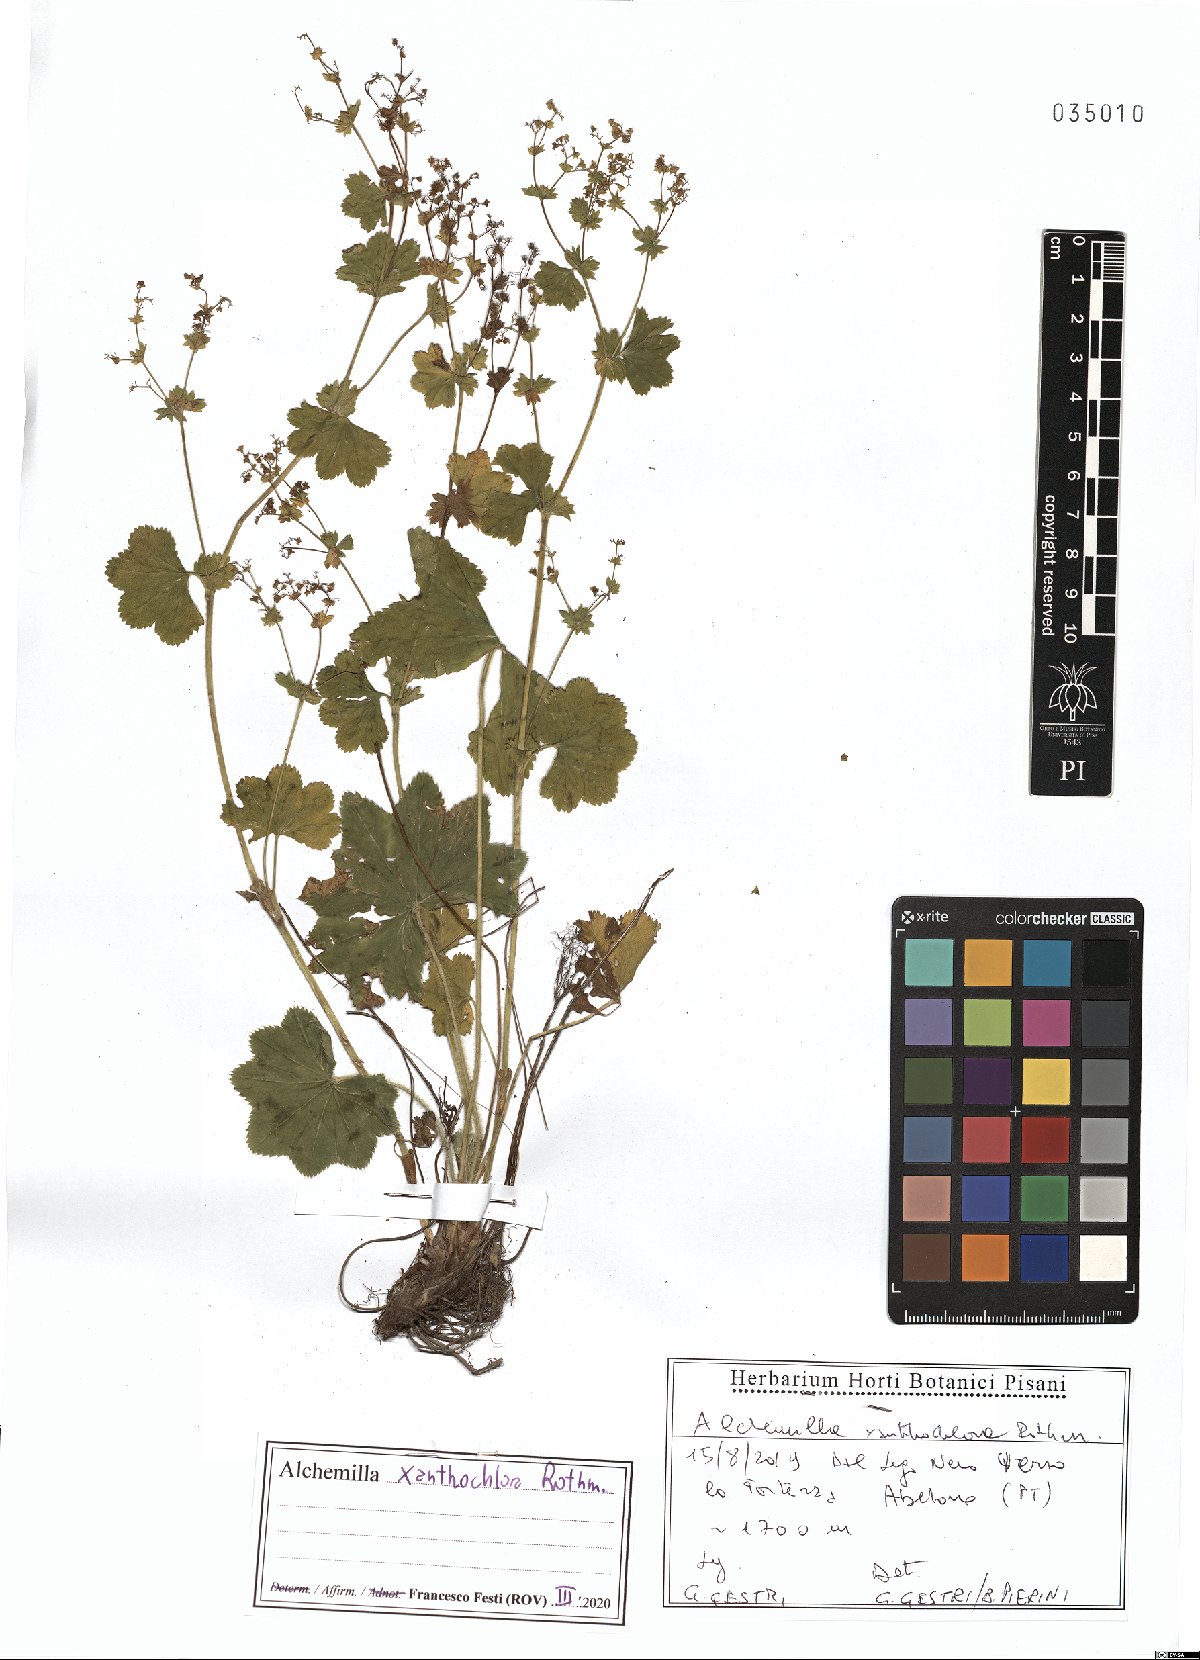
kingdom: Plantae
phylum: Tracheophyta
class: Magnoliopsida
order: Rosales
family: Rosaceae
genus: Alchemilla
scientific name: Alchemilla xanthochlora
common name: Intermediate lady's-mantle
